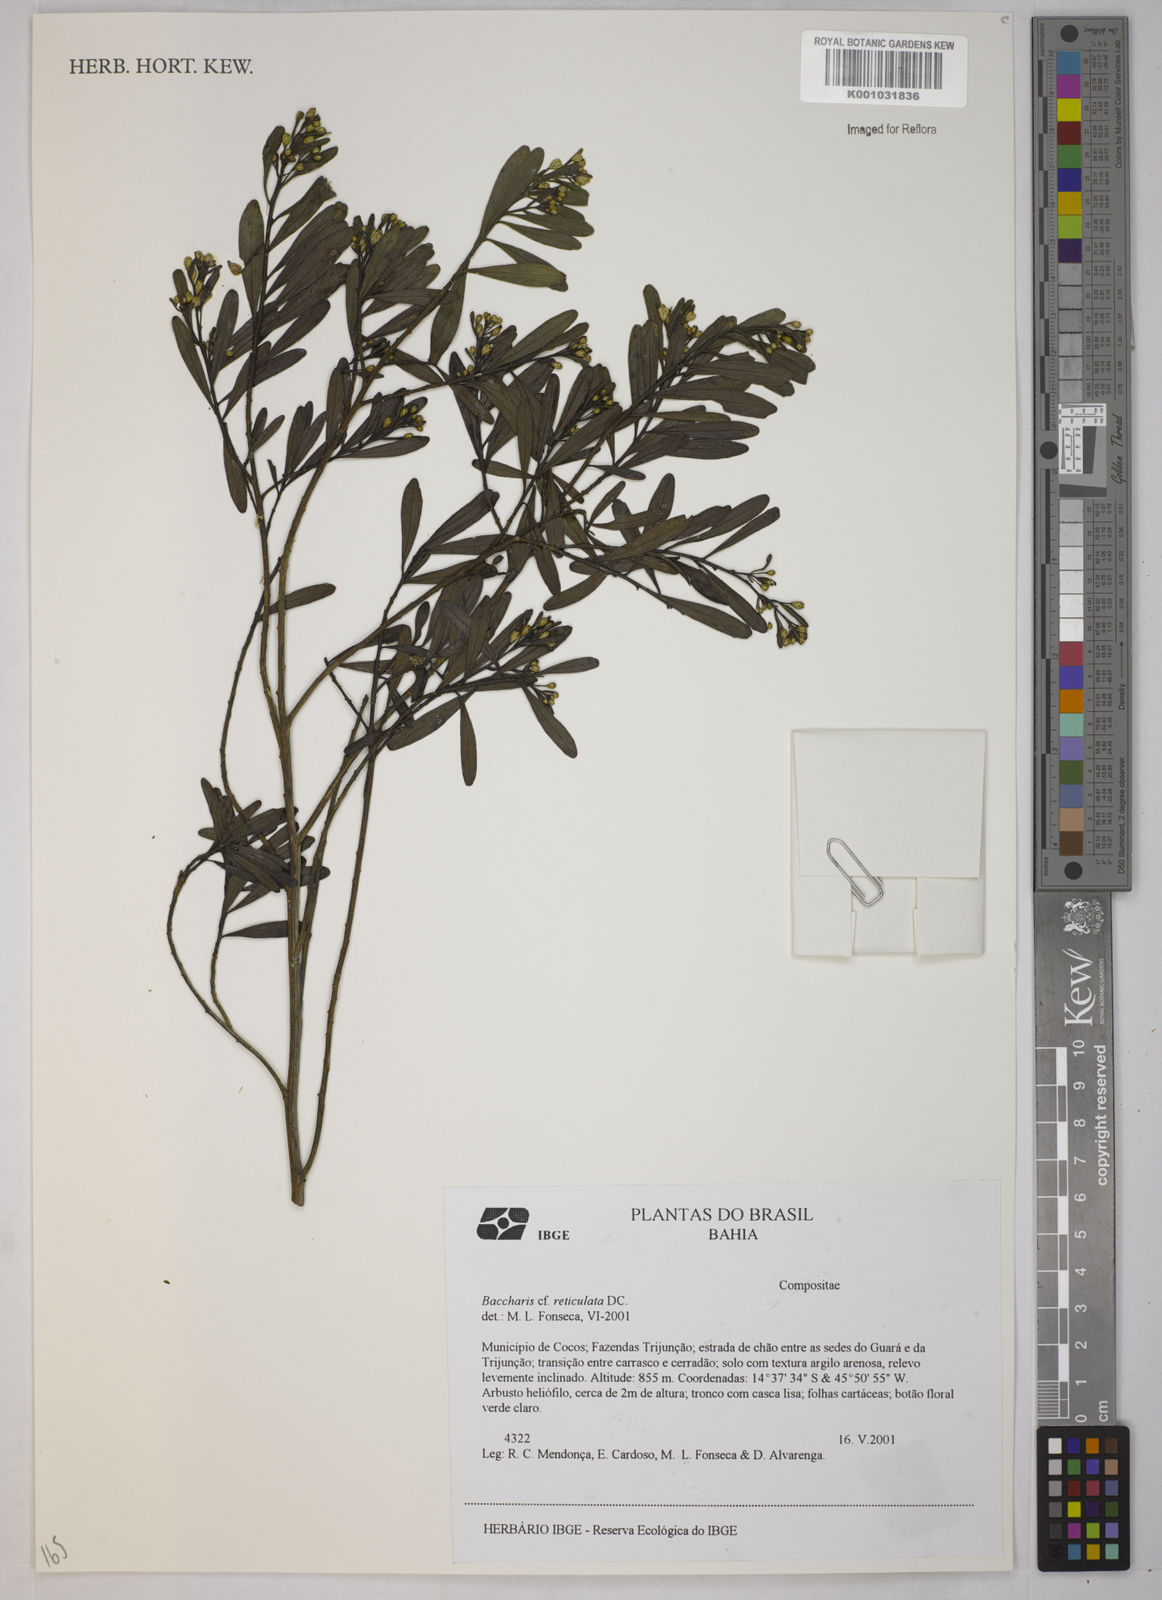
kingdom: Plantae
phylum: Tracheophyta
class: Magnoliopsida
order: Asterales
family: Asteraceae
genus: Baccharis
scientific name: Baccharis
